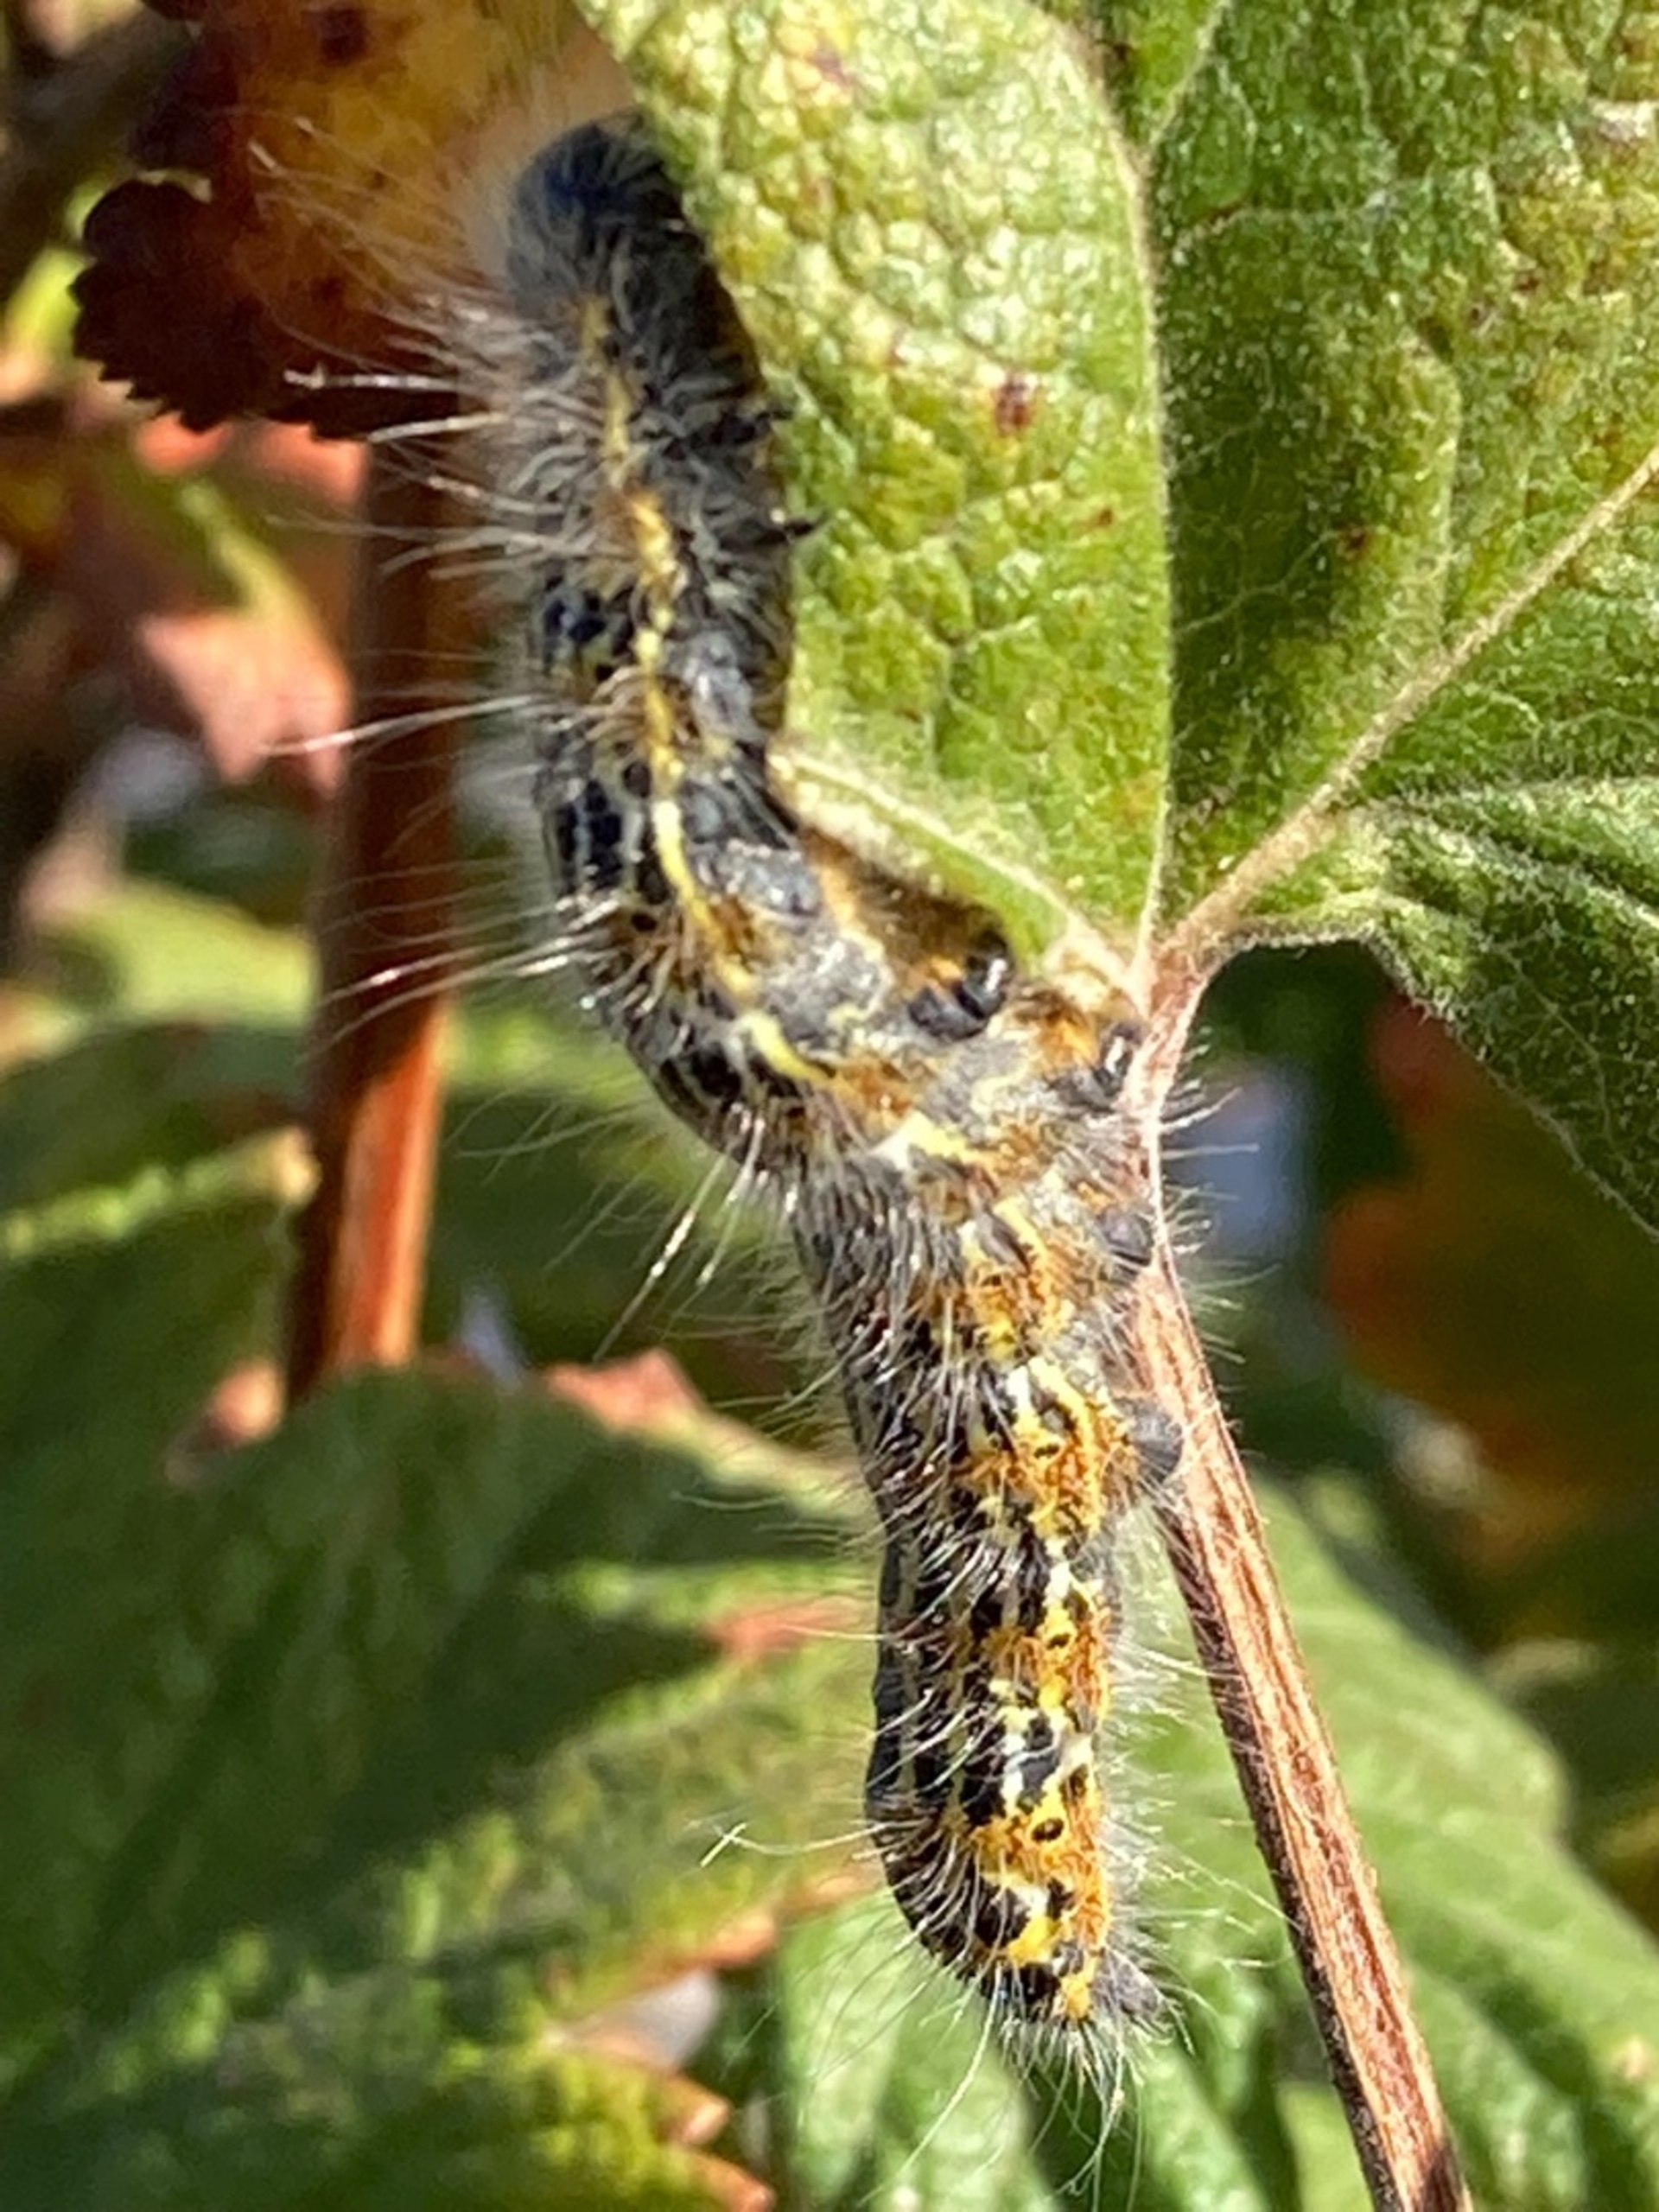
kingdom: Animalia
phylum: Arthropoda
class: Insecta
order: Lepidoptera
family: Notodontidae
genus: Phalera
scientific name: Phalera bucephala
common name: Måneplet
